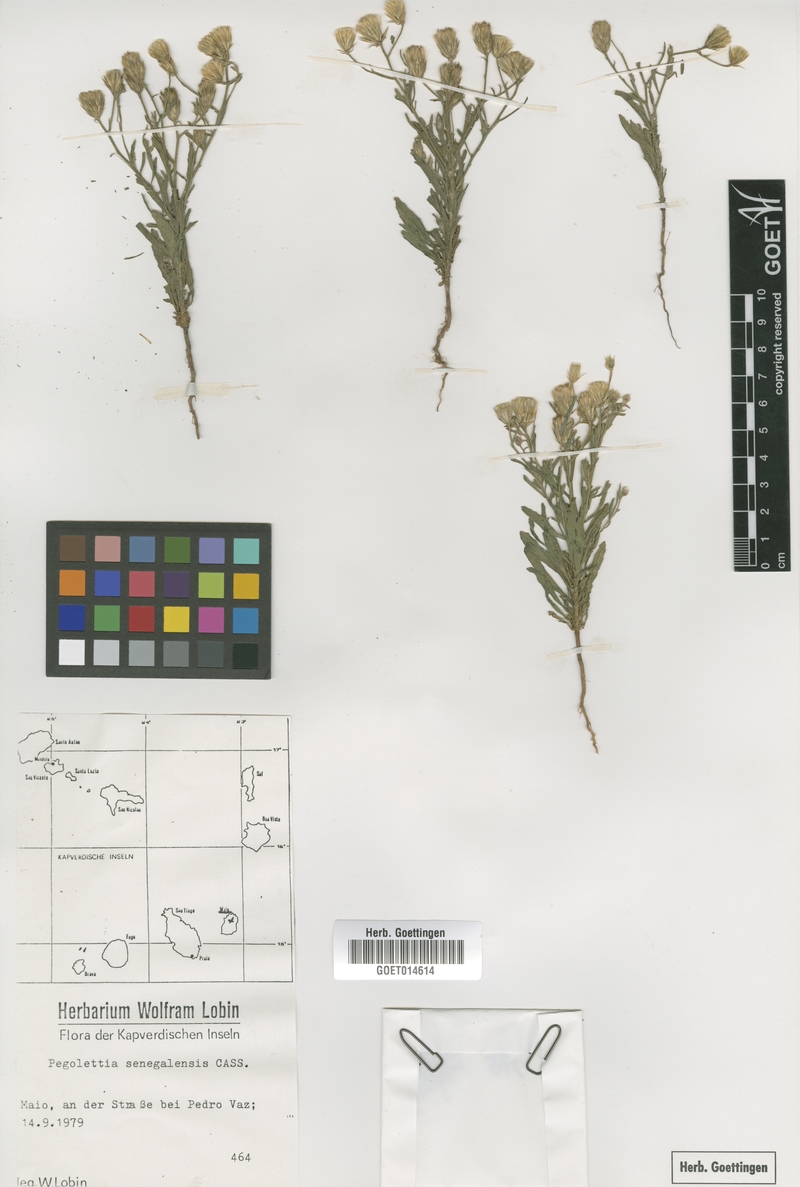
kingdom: Plantae
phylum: Tracheophyta
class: Magnoliopsida
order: Asterales
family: Asteraceae
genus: Pegolettia
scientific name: Pegolettia senegalensis
